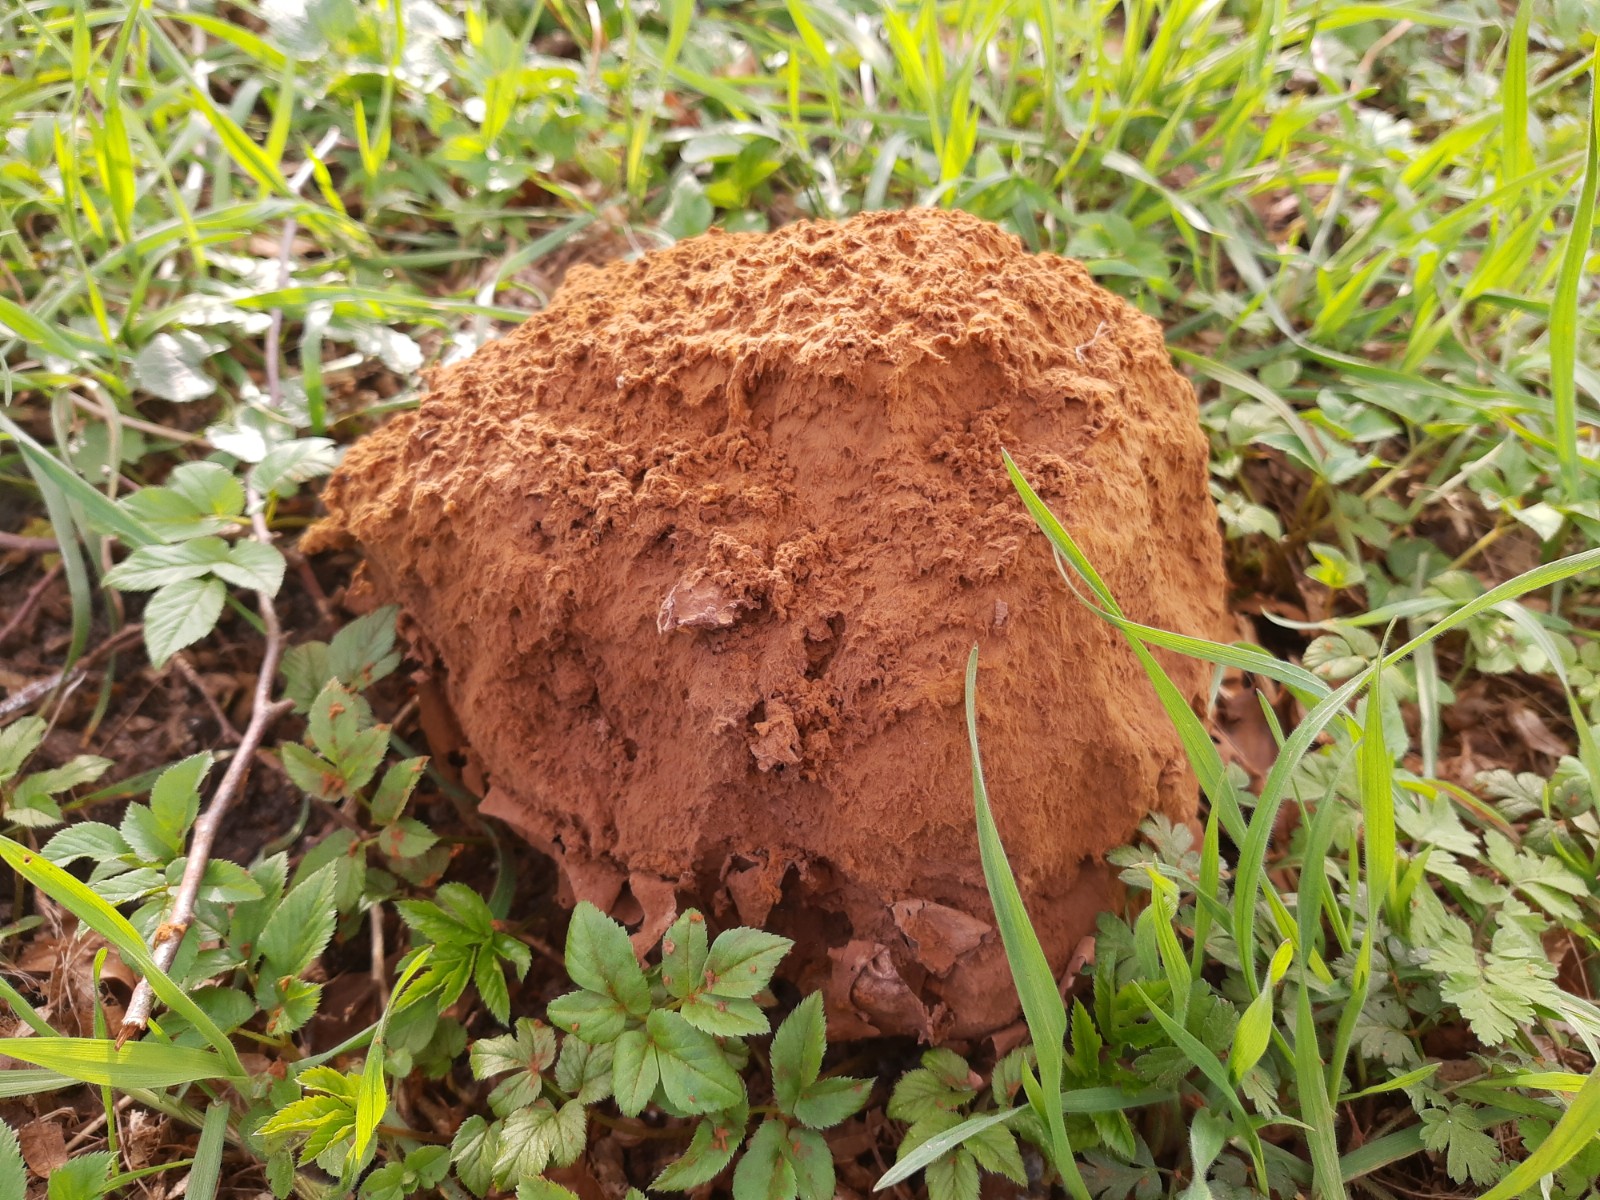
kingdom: Fungi
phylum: Basidiomycota
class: Agaricomycetes
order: Agaricales
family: Lycoperdaceae
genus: Calvatia
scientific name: Calvatia gigantea
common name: kæmpestøvbold
